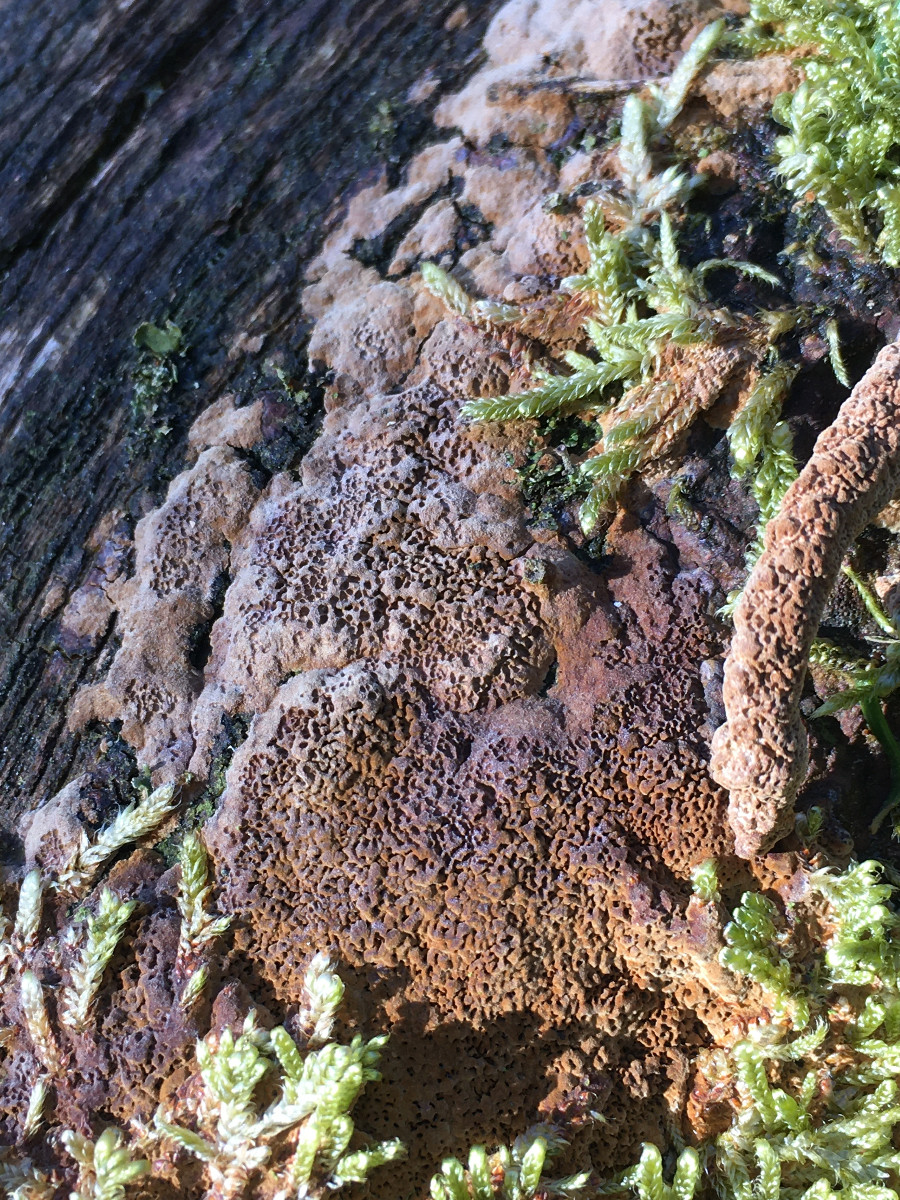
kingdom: Fungi
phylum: Basidiomycota
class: Agaricomycetes
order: Polyporales
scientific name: Polyporales
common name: poresvampordenen
